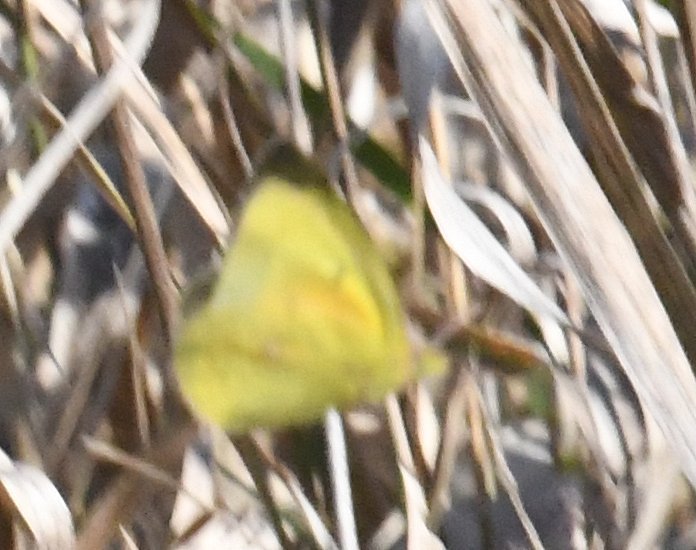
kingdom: Animalia
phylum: Arthropoda
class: Insecta
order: Lepidoptera
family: Pieridae
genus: Colias
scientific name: Colias eurytheme
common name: Orange Sulphur
